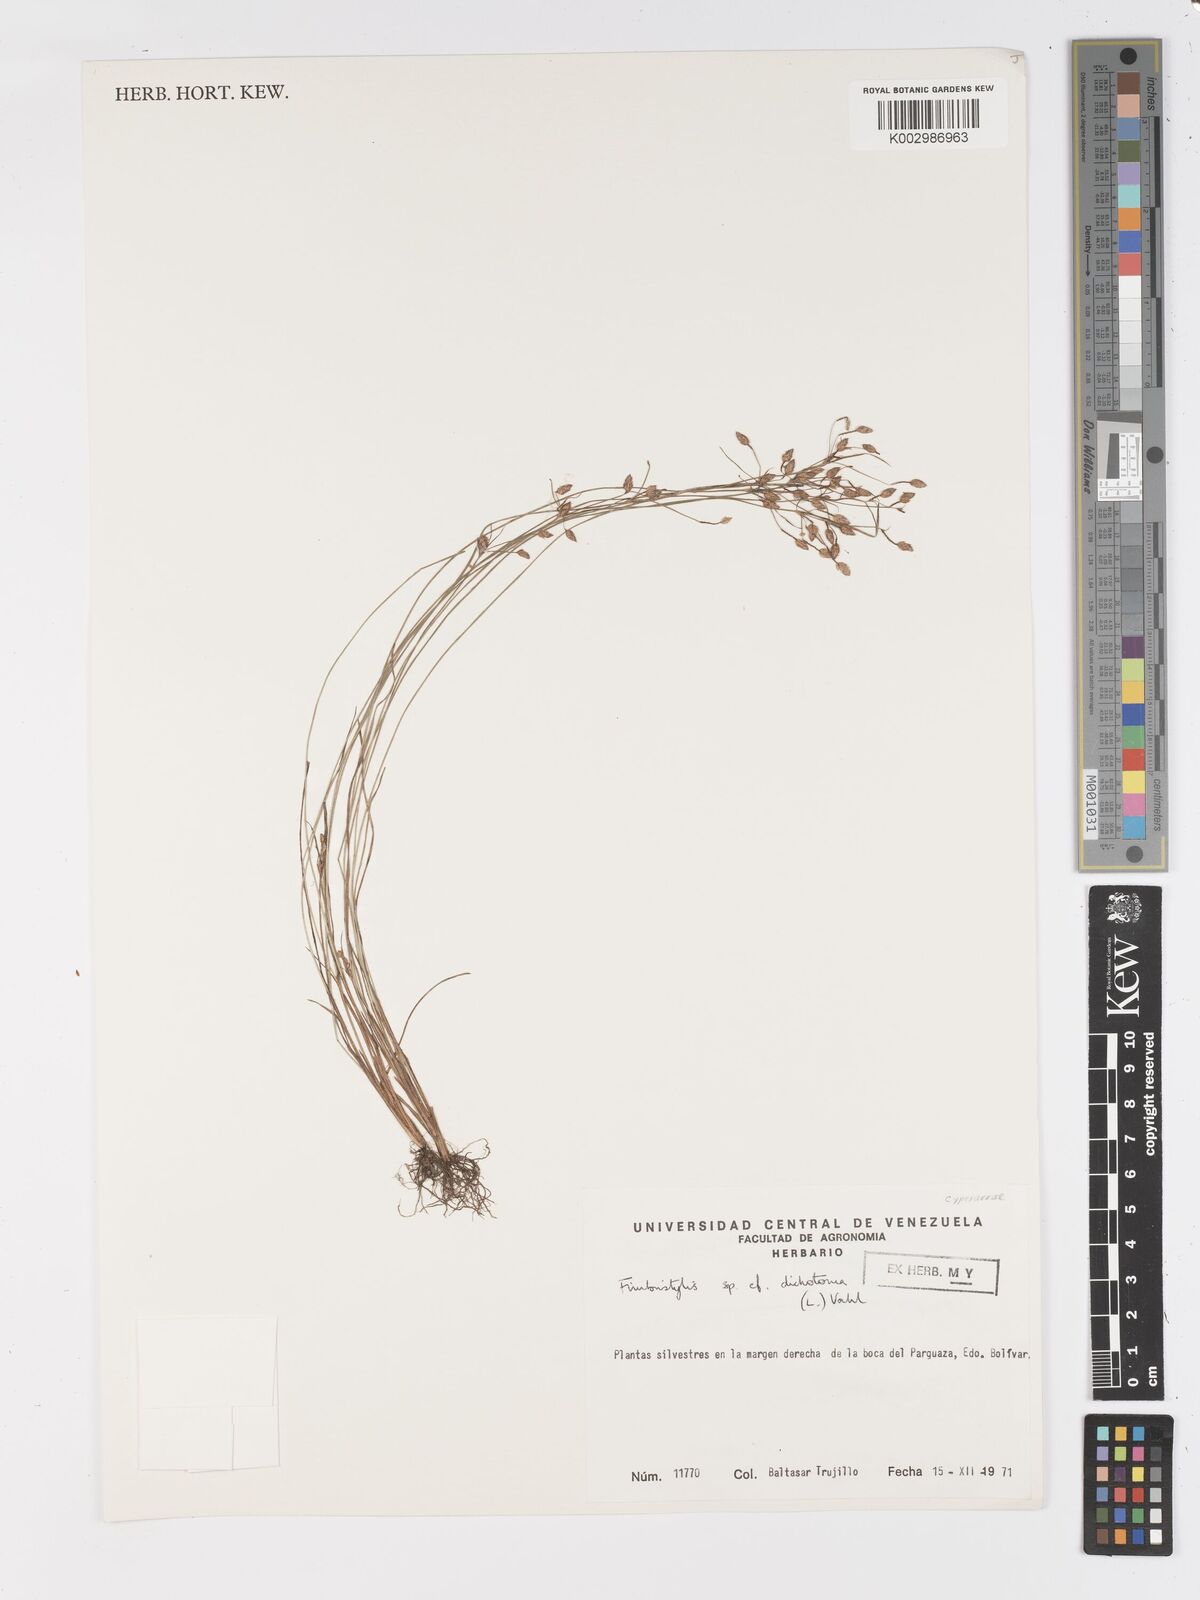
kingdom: Plantae
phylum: Tracheophyta
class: Liliopsida
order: Poales
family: Cyperaceae
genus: Fimbristylis
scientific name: Fimbristylis dichotoma
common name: Forked fimbry
